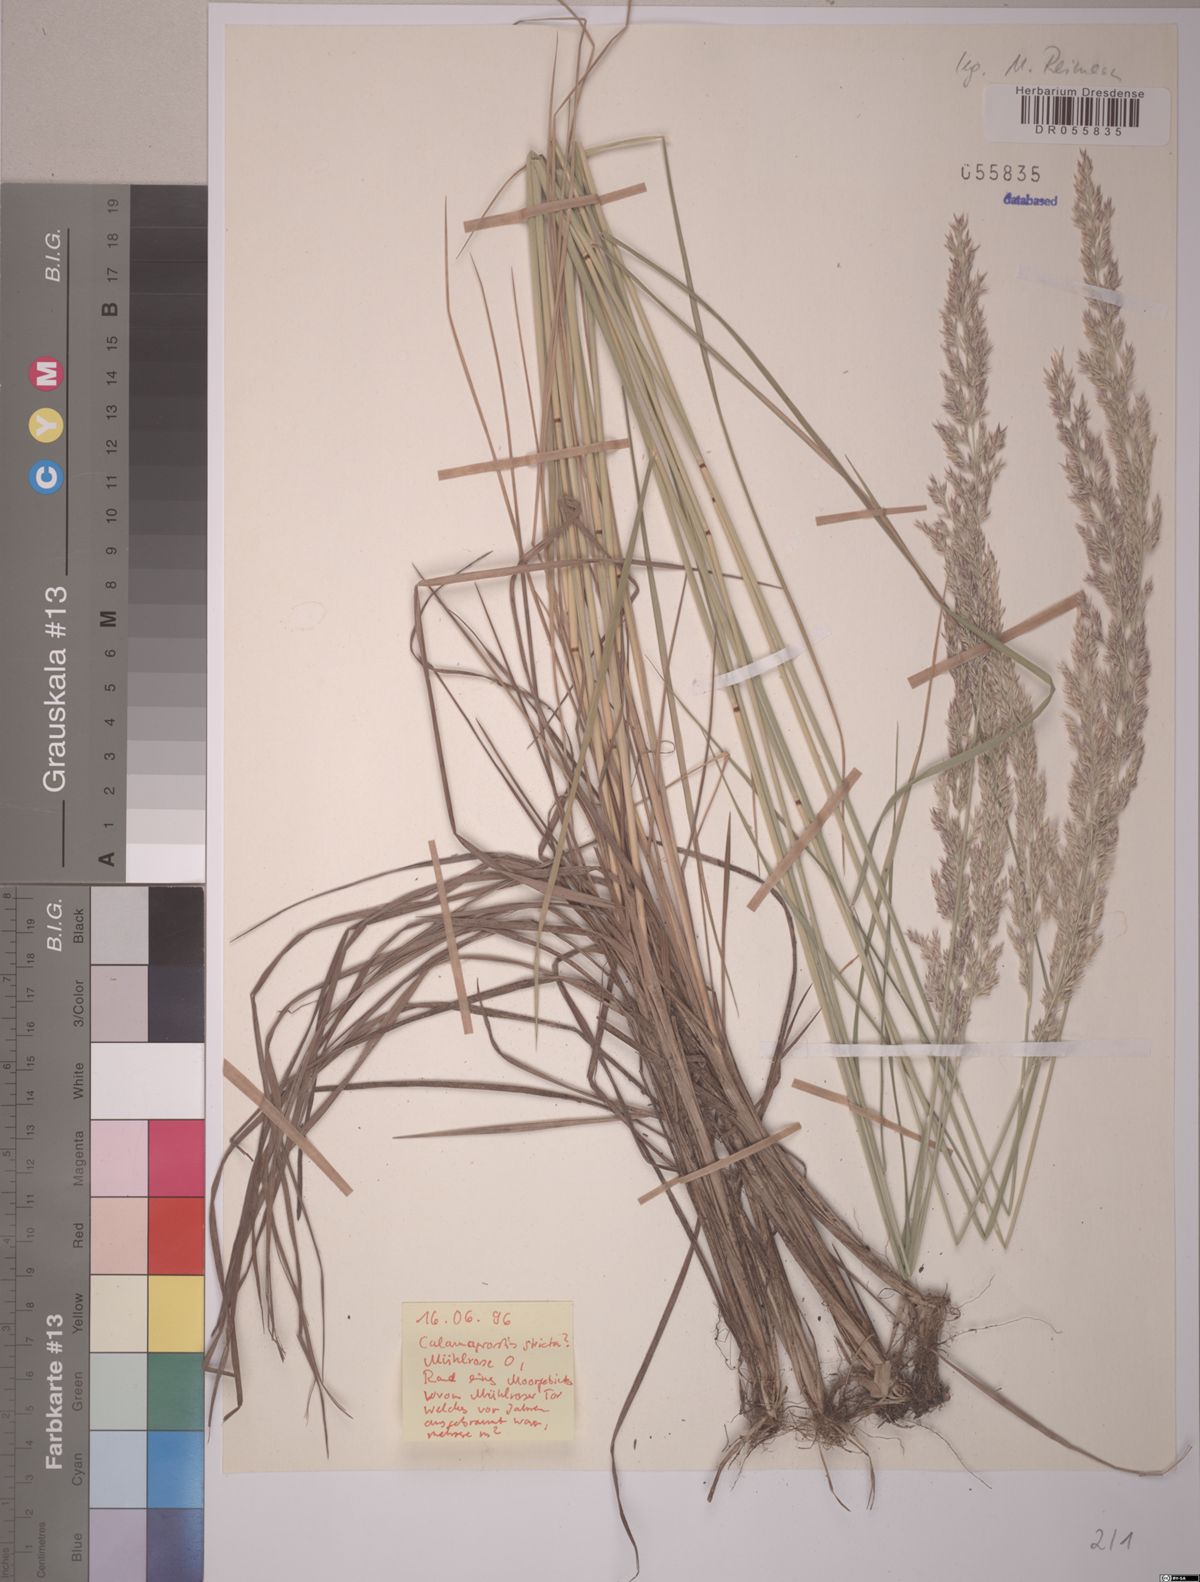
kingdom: Plantae
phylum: Tracheophyta
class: Liliopsida
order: Poales
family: Poaceae
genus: Calamagrostis
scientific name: Calamagrostis stricta
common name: Narrow small-reed
